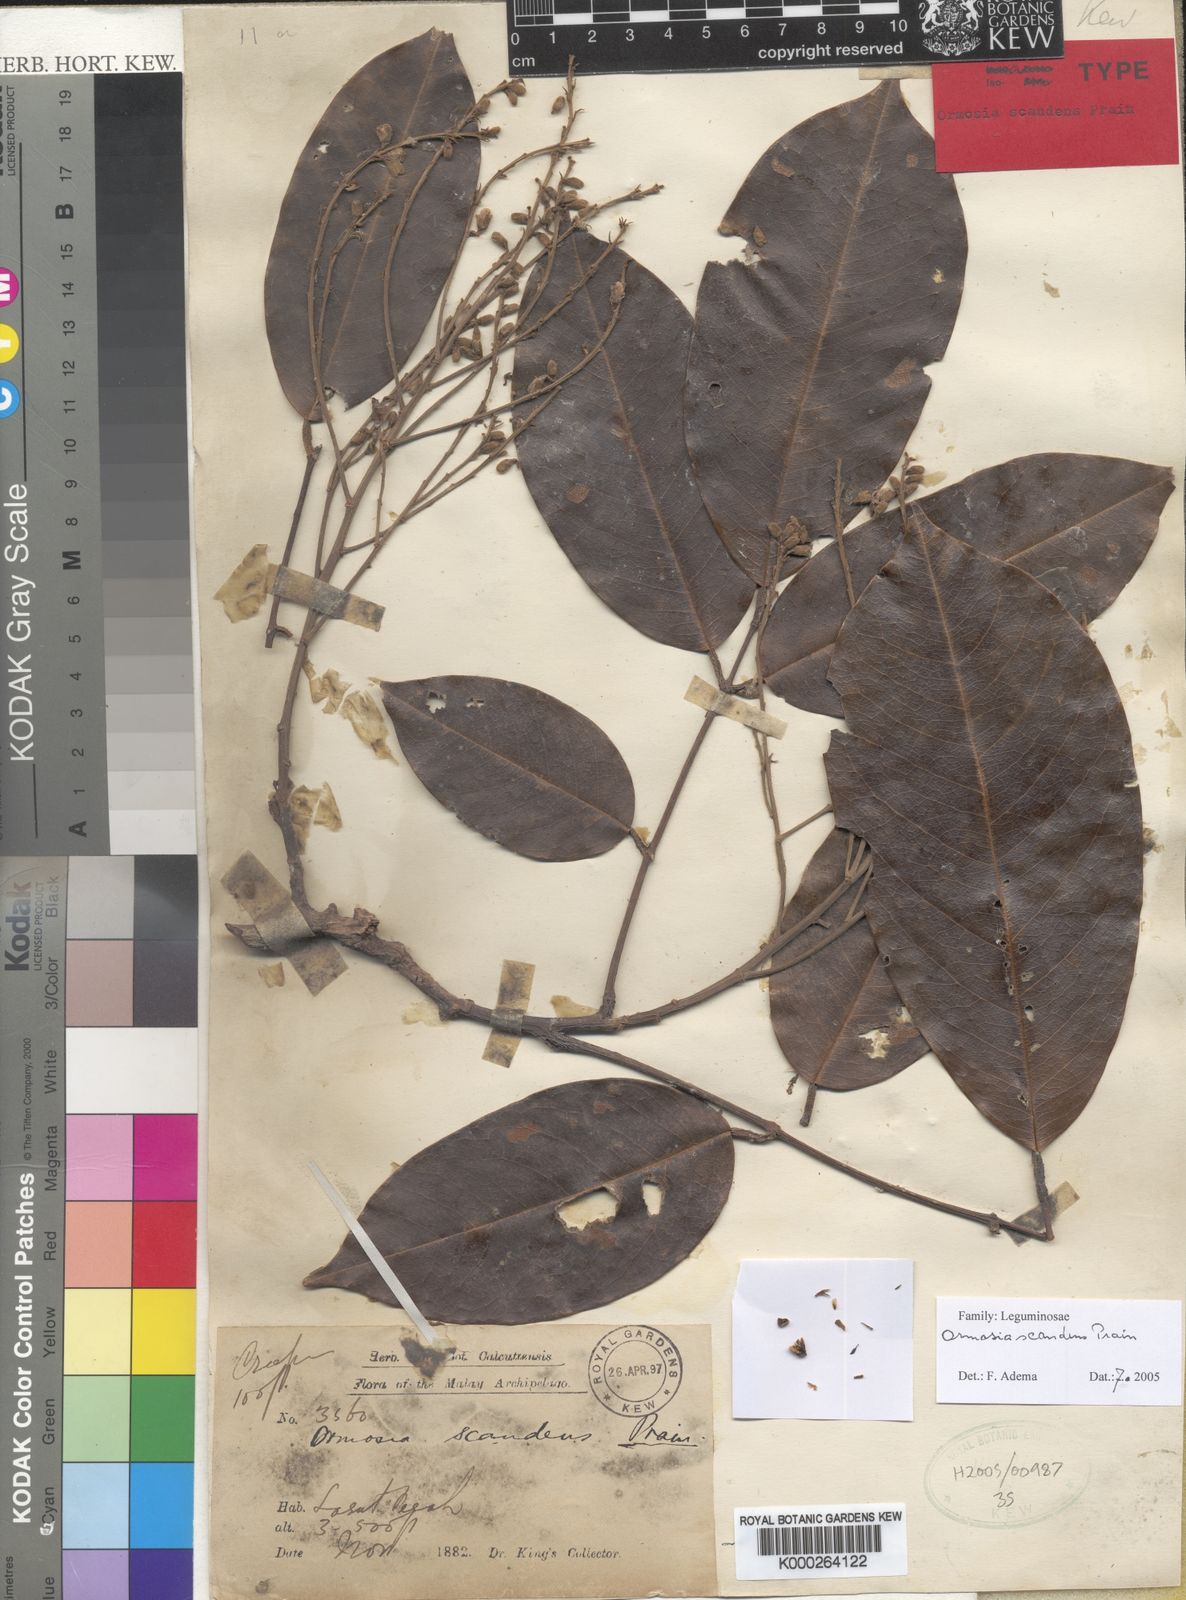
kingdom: Plantae
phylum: Tracheophyta
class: Magnoliopsida
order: Fabales
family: Fabaceae
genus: Ormosia
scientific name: Ormosia scandens
